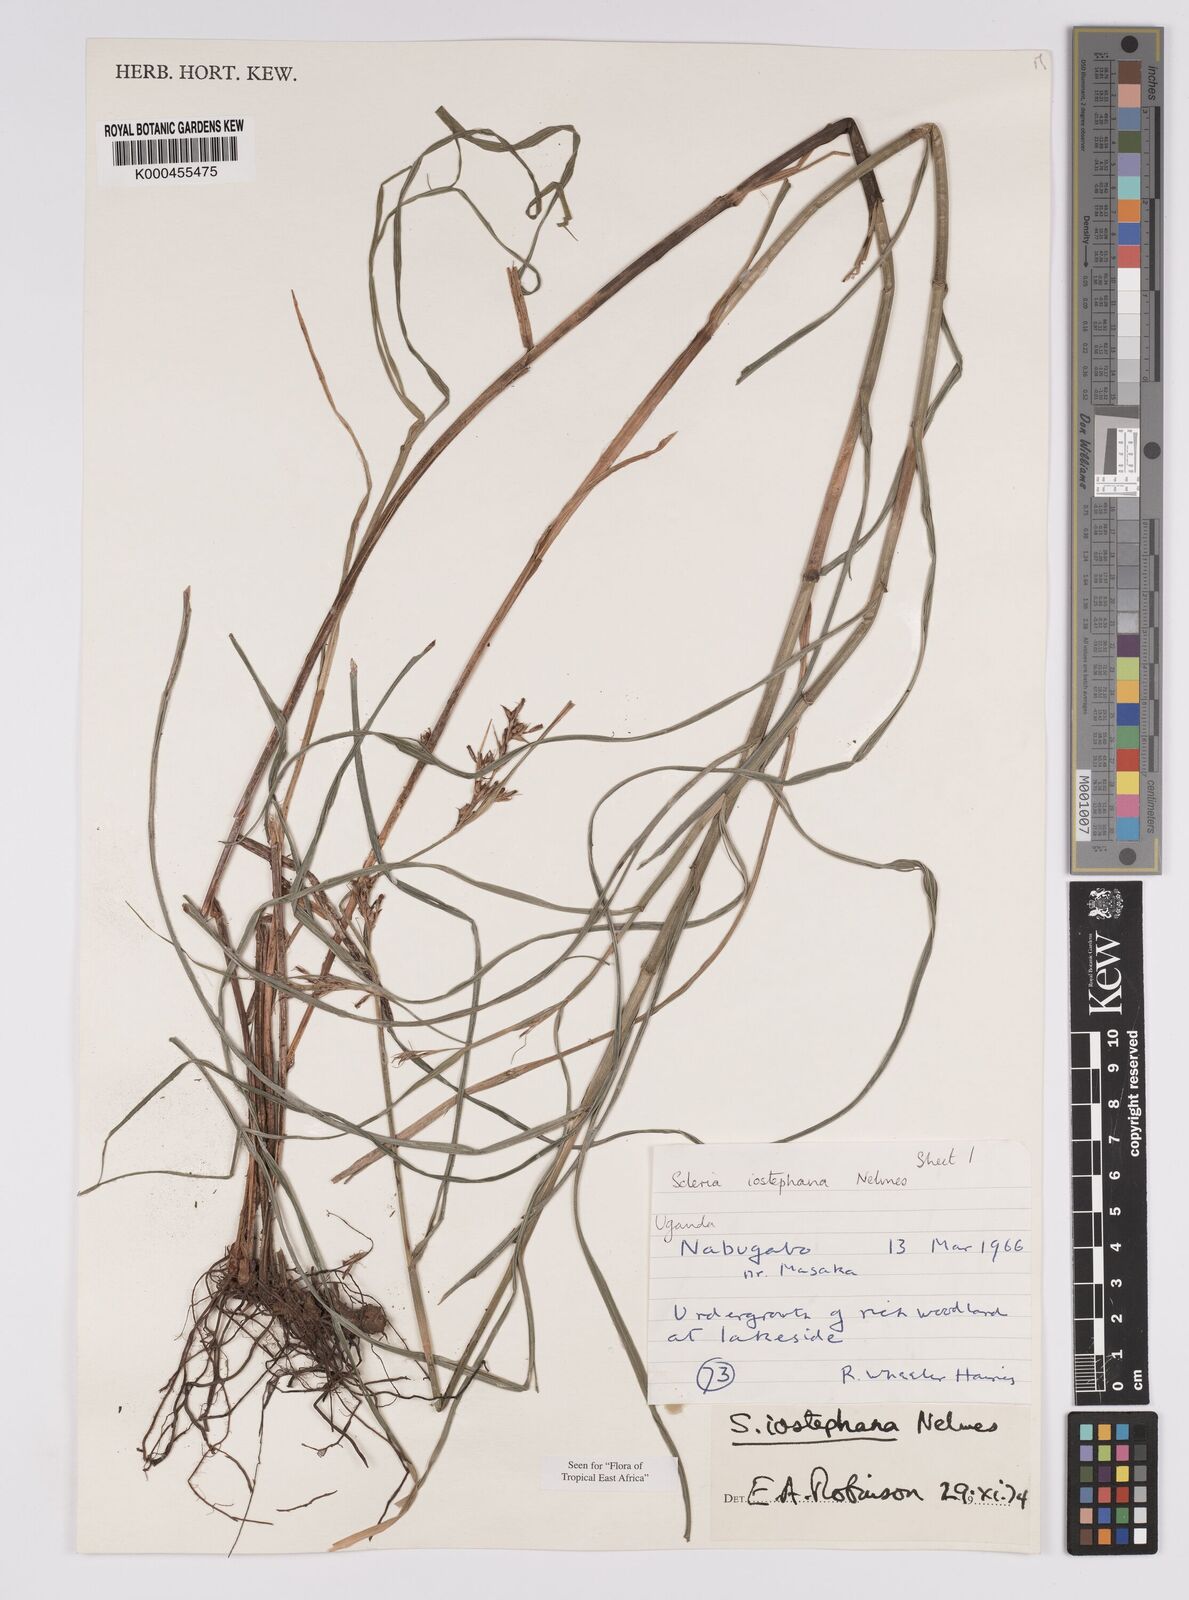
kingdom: Plantae
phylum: Tracheophyta
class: Liliopsida
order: Poales
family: Cyperaceae
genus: Scleria
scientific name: Scleria iostephana
